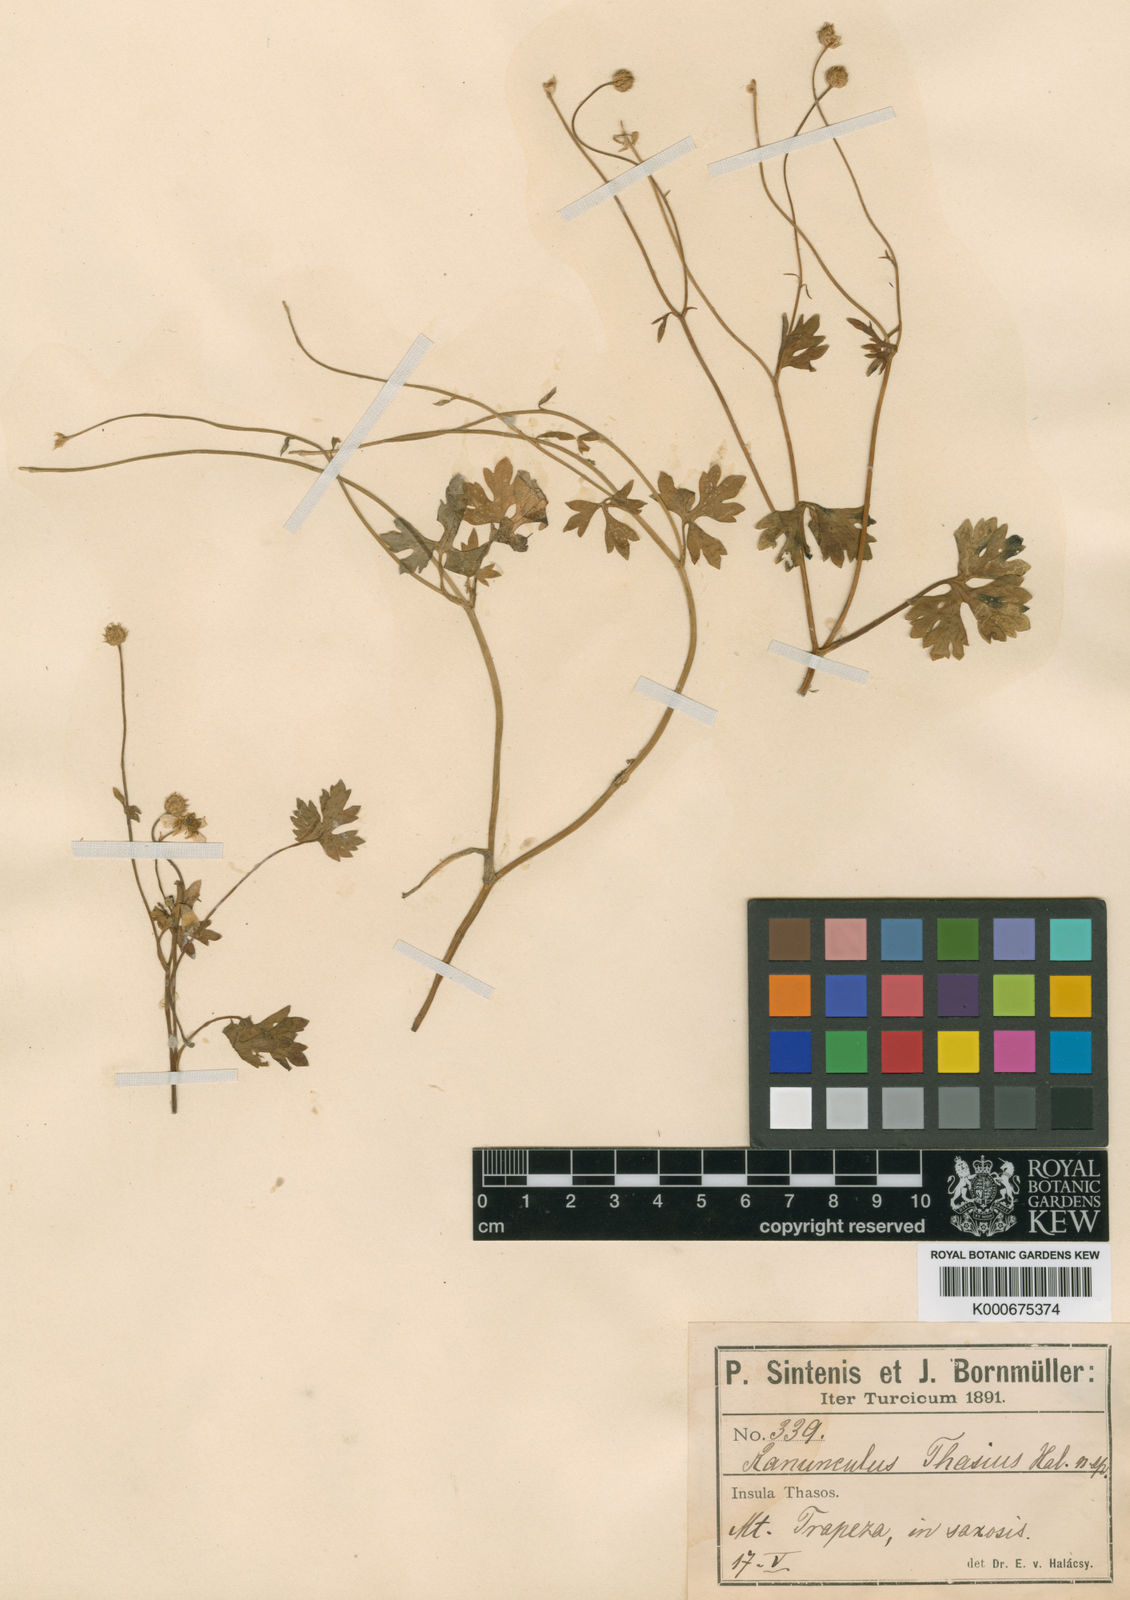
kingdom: Plantae
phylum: Tracheophyta
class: Magnoliopsida
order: Ranunculales
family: Ranunculaceae
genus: Ranunculus
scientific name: Ranunculus
